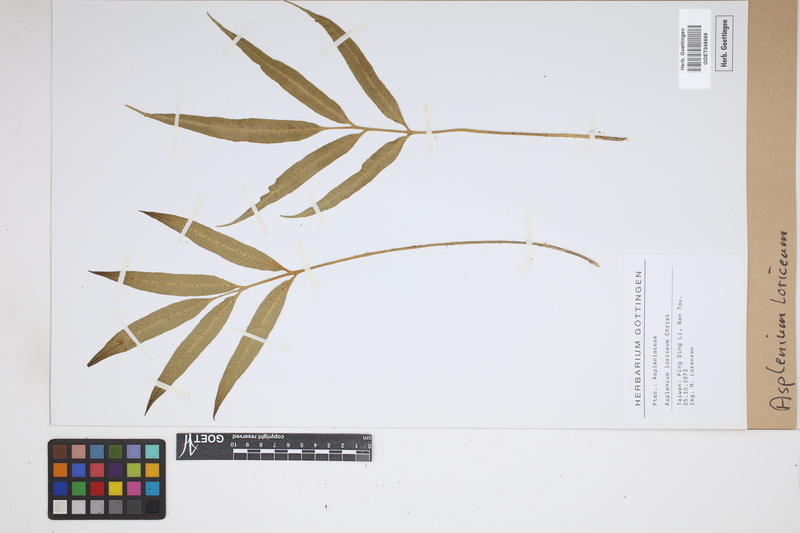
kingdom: Plantae
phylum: Tracheophyta
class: Polypodiopsida
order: Polypodiales
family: Aspleniaceae
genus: Asplenium
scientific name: Asplenium formosae
